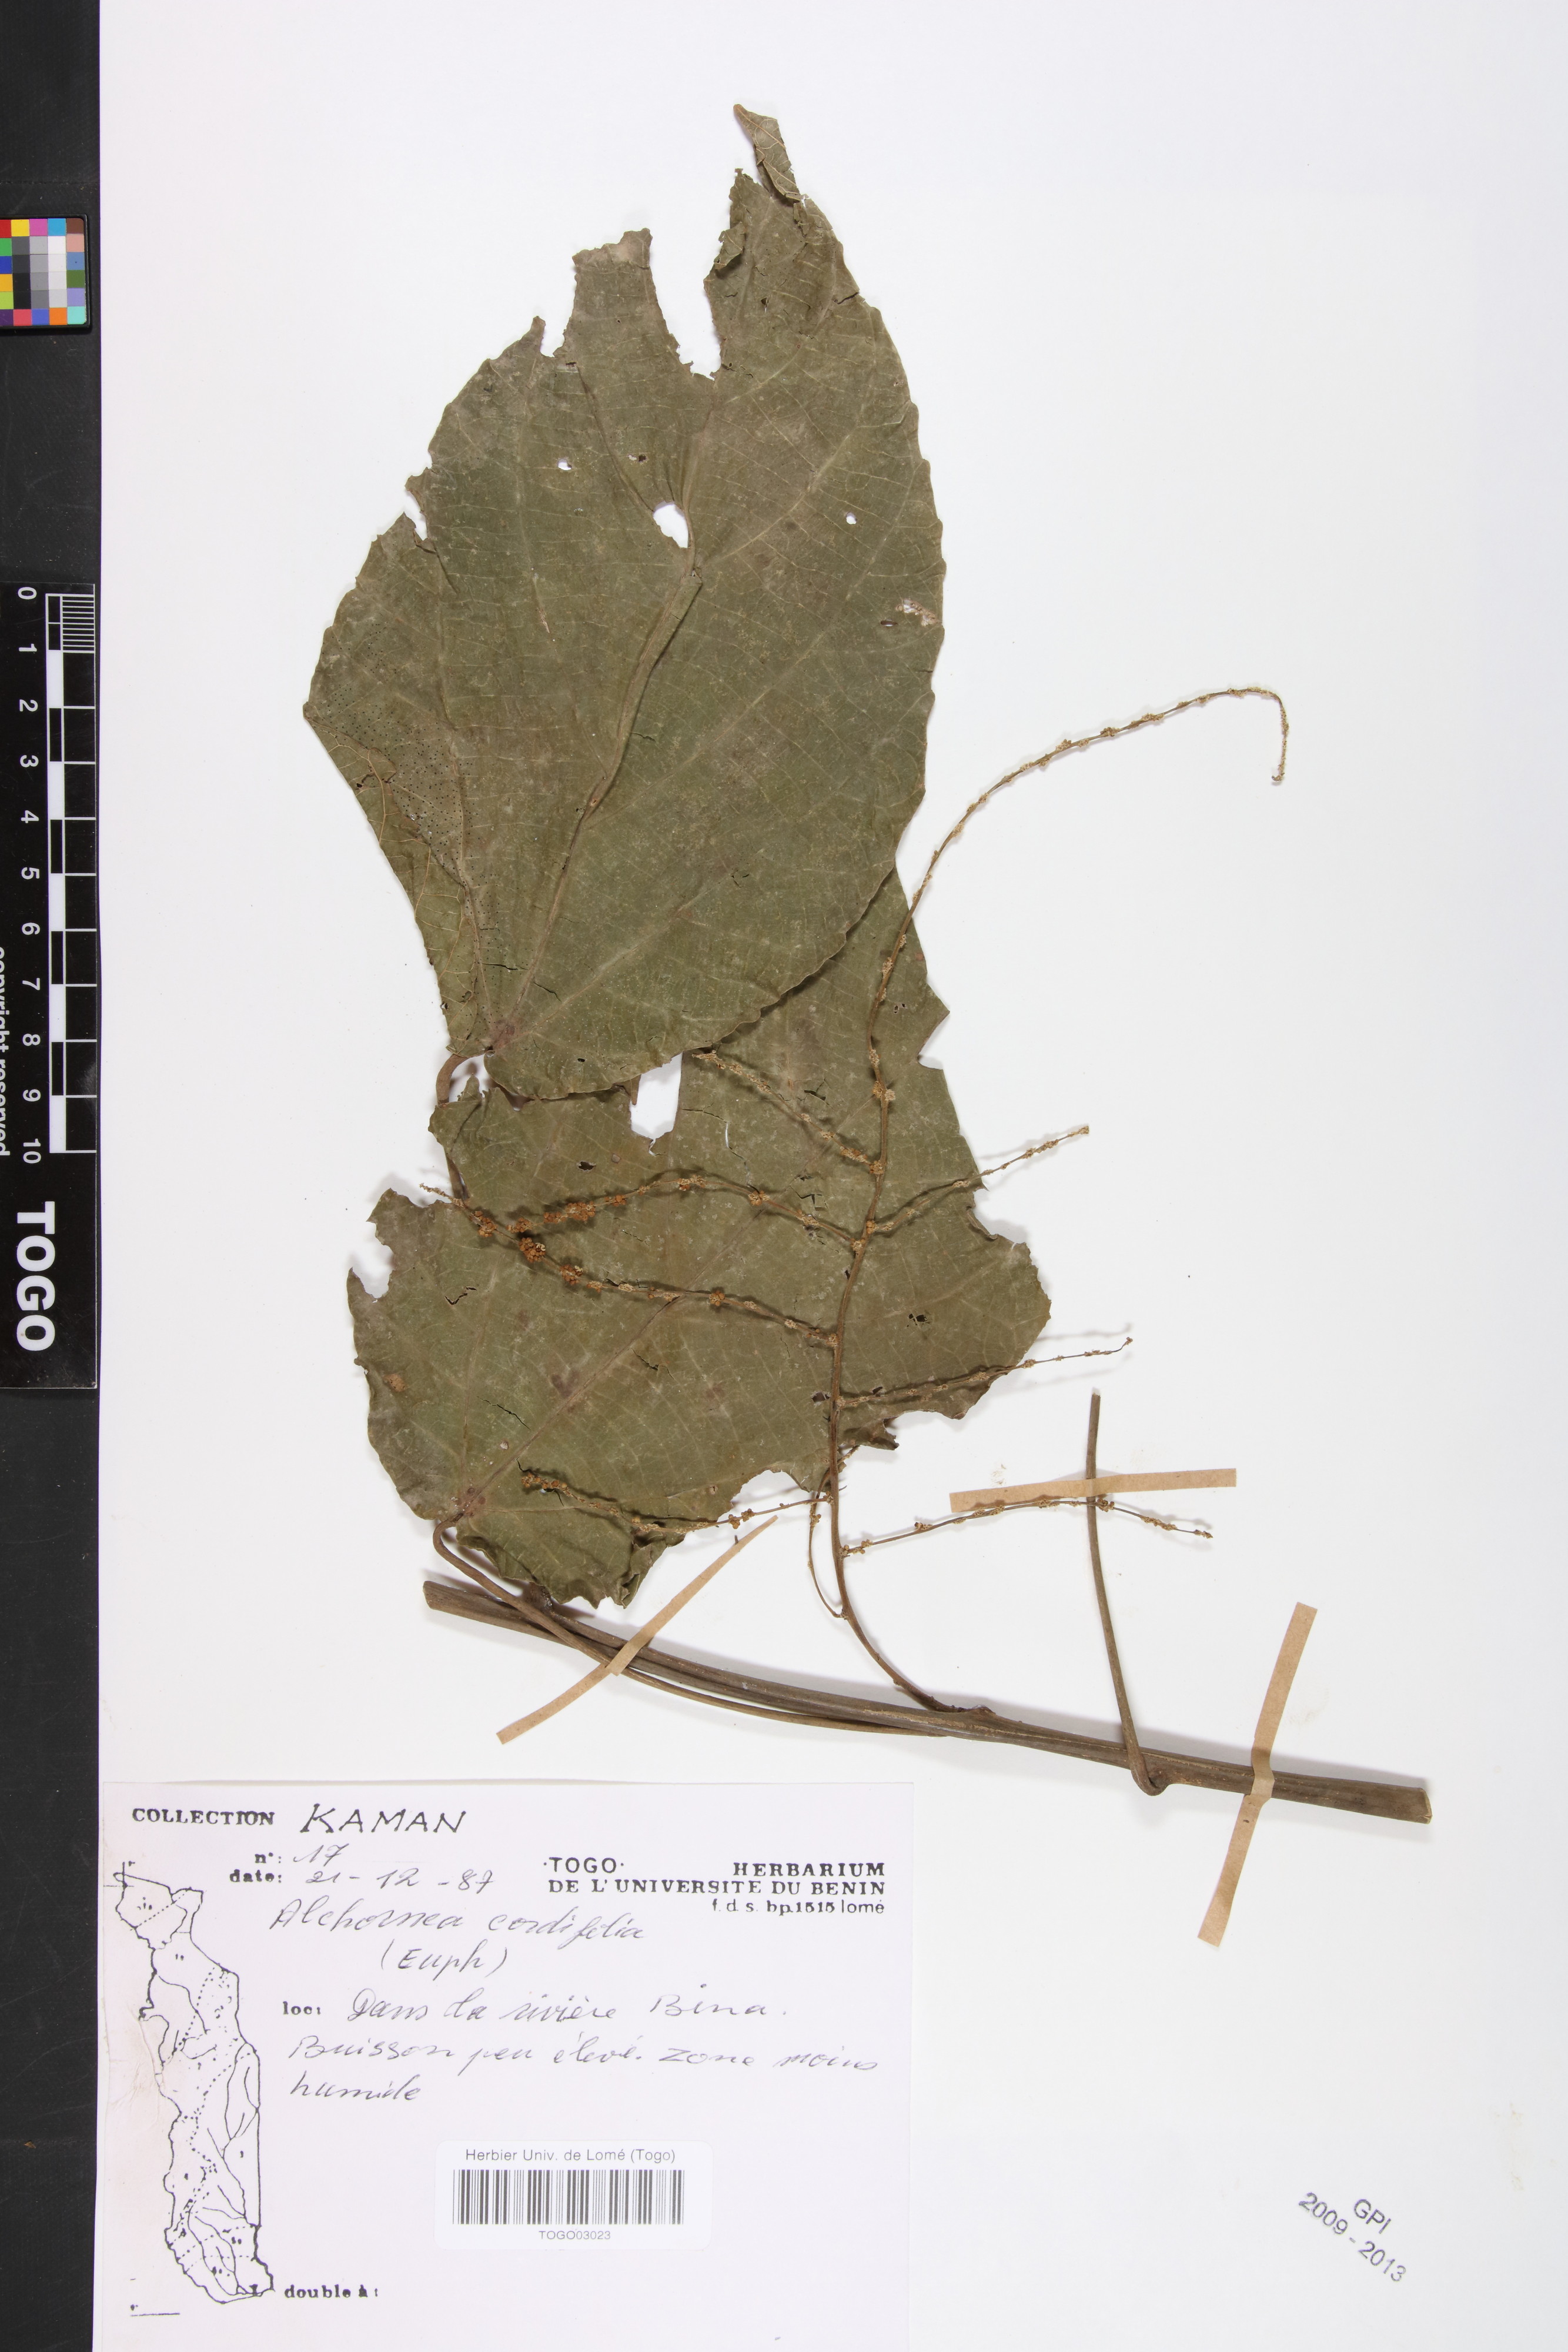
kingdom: Plantae
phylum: Tracheophyta
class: Magnoliopsida
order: Malpighiales
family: Euphorbiaceae
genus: Alchornea
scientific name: Alchornea cordifolia
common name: Christmasbush
